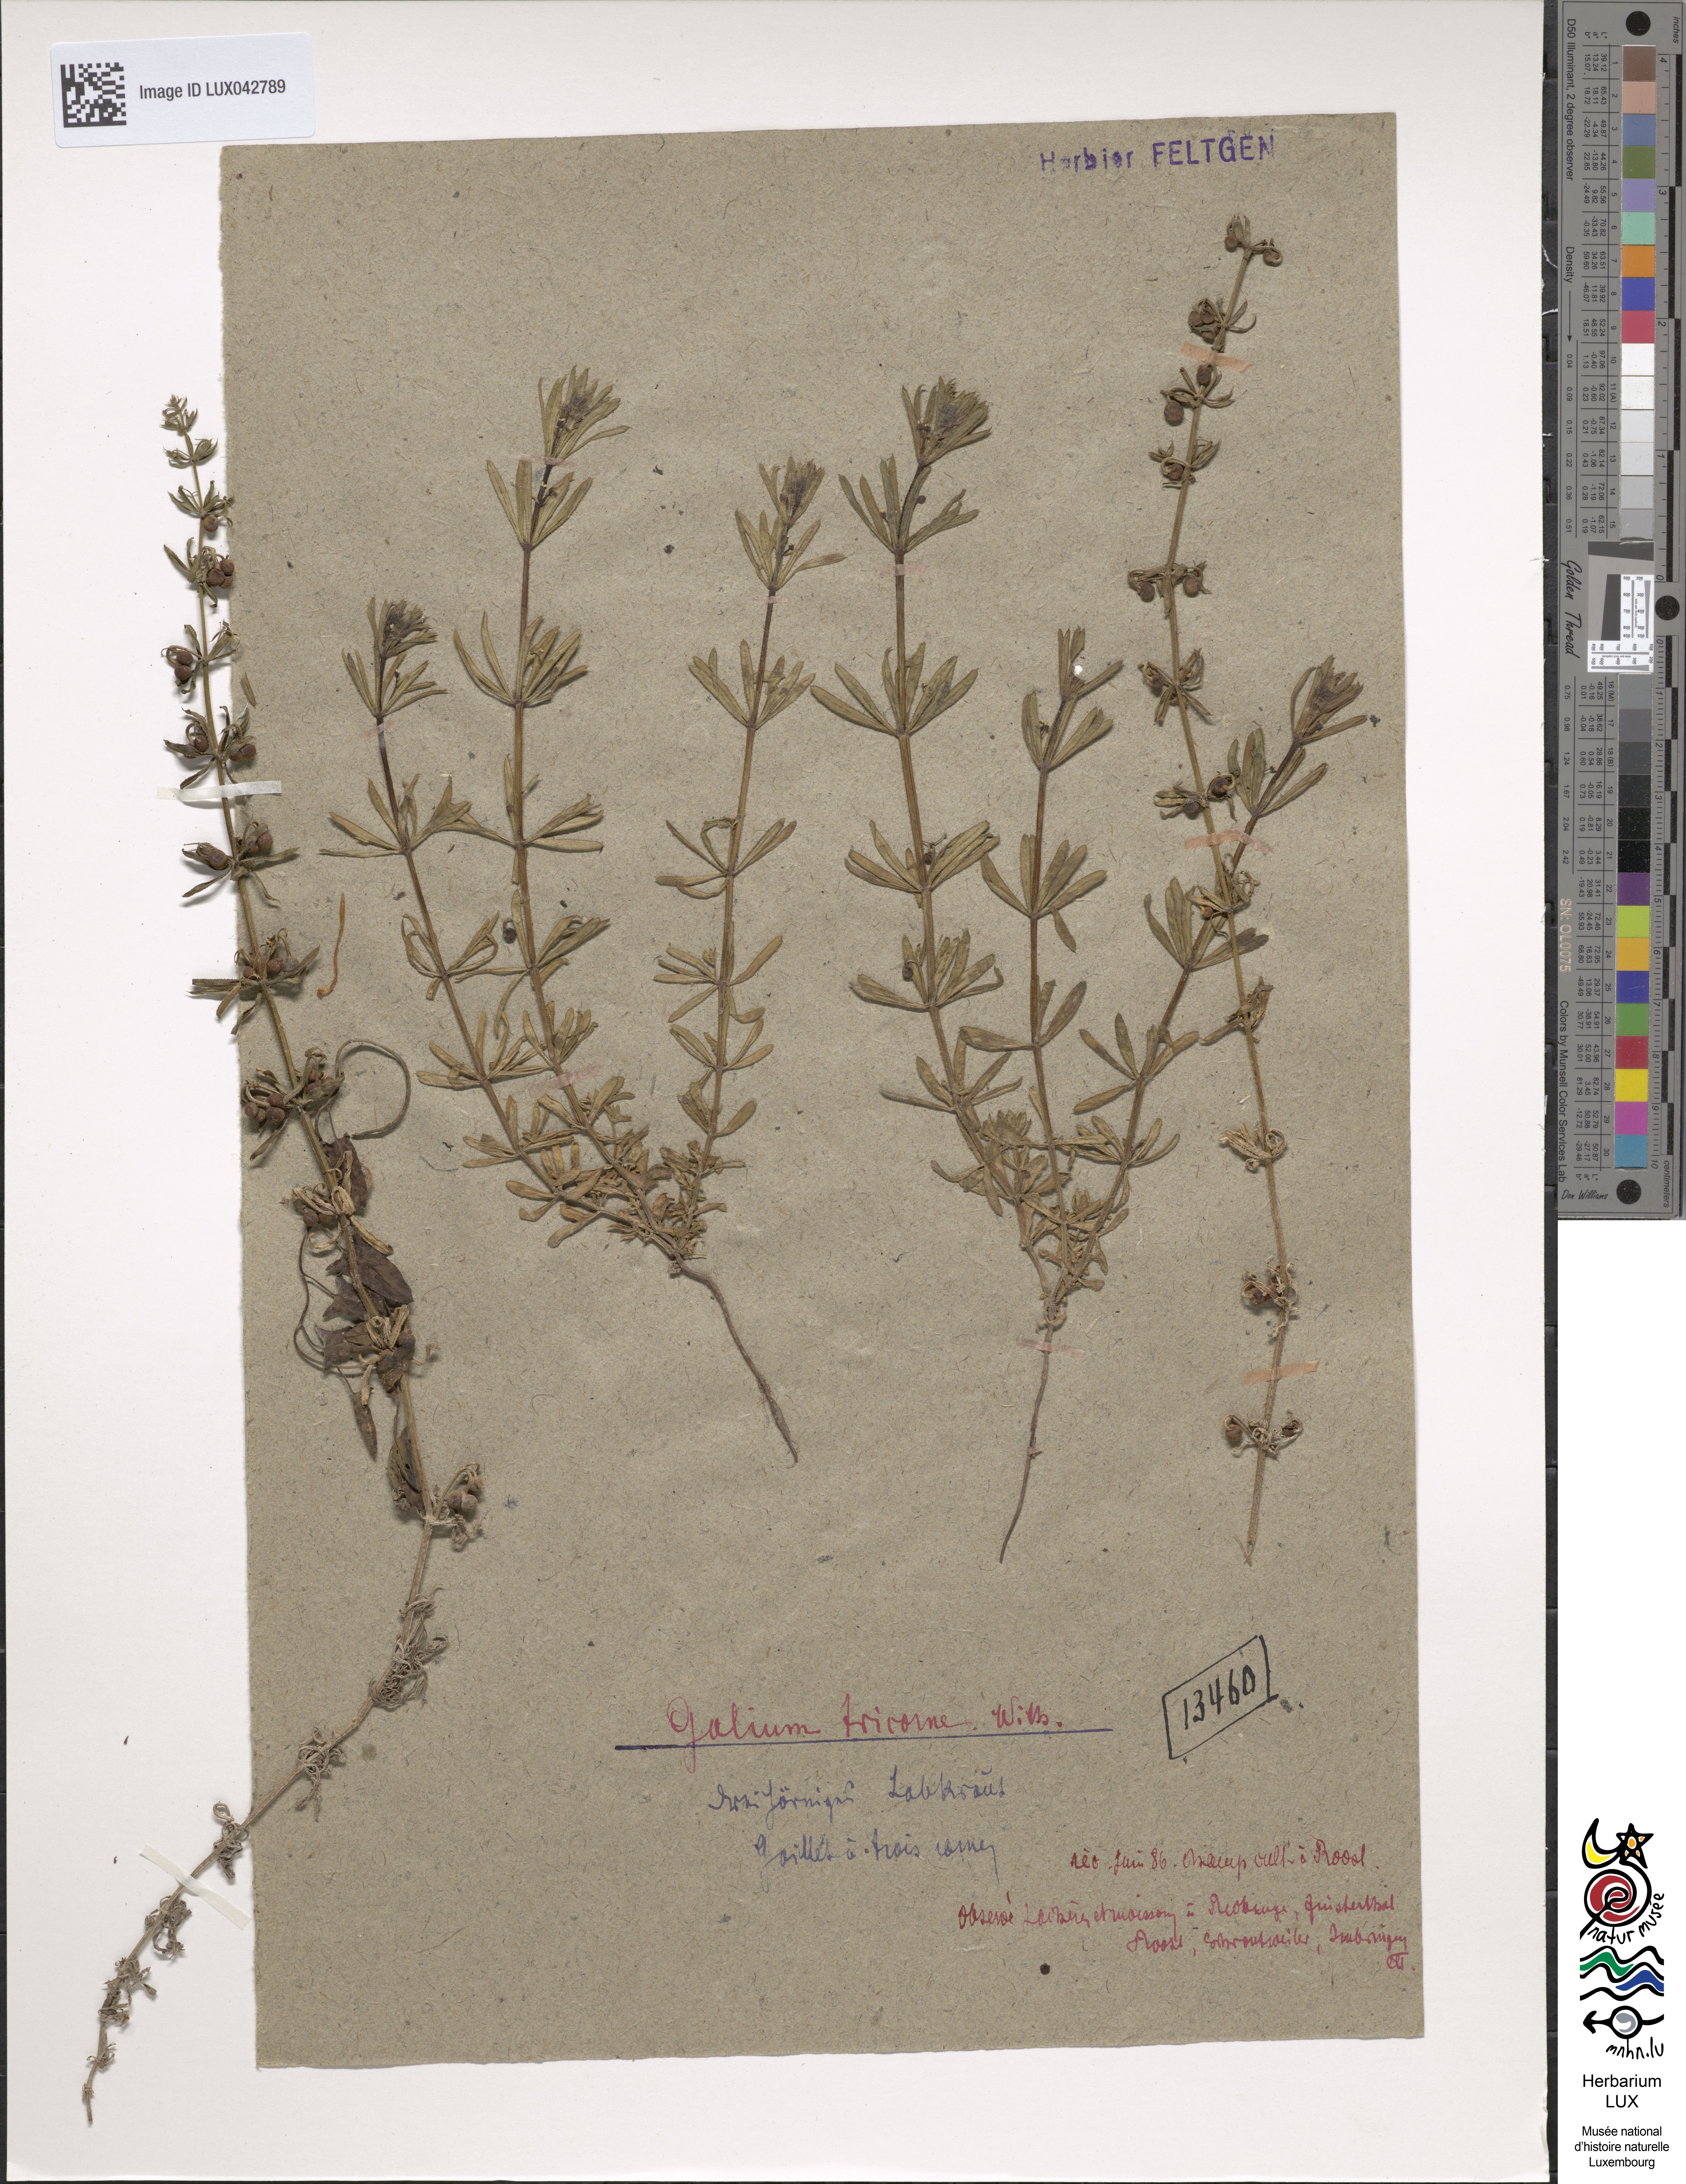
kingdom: Plantae
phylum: Tracheophyta
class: Magnoliopsida
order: Gentianales
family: Rubiaceae
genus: Galium
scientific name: Galium tricornutum
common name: Corn cleavers
